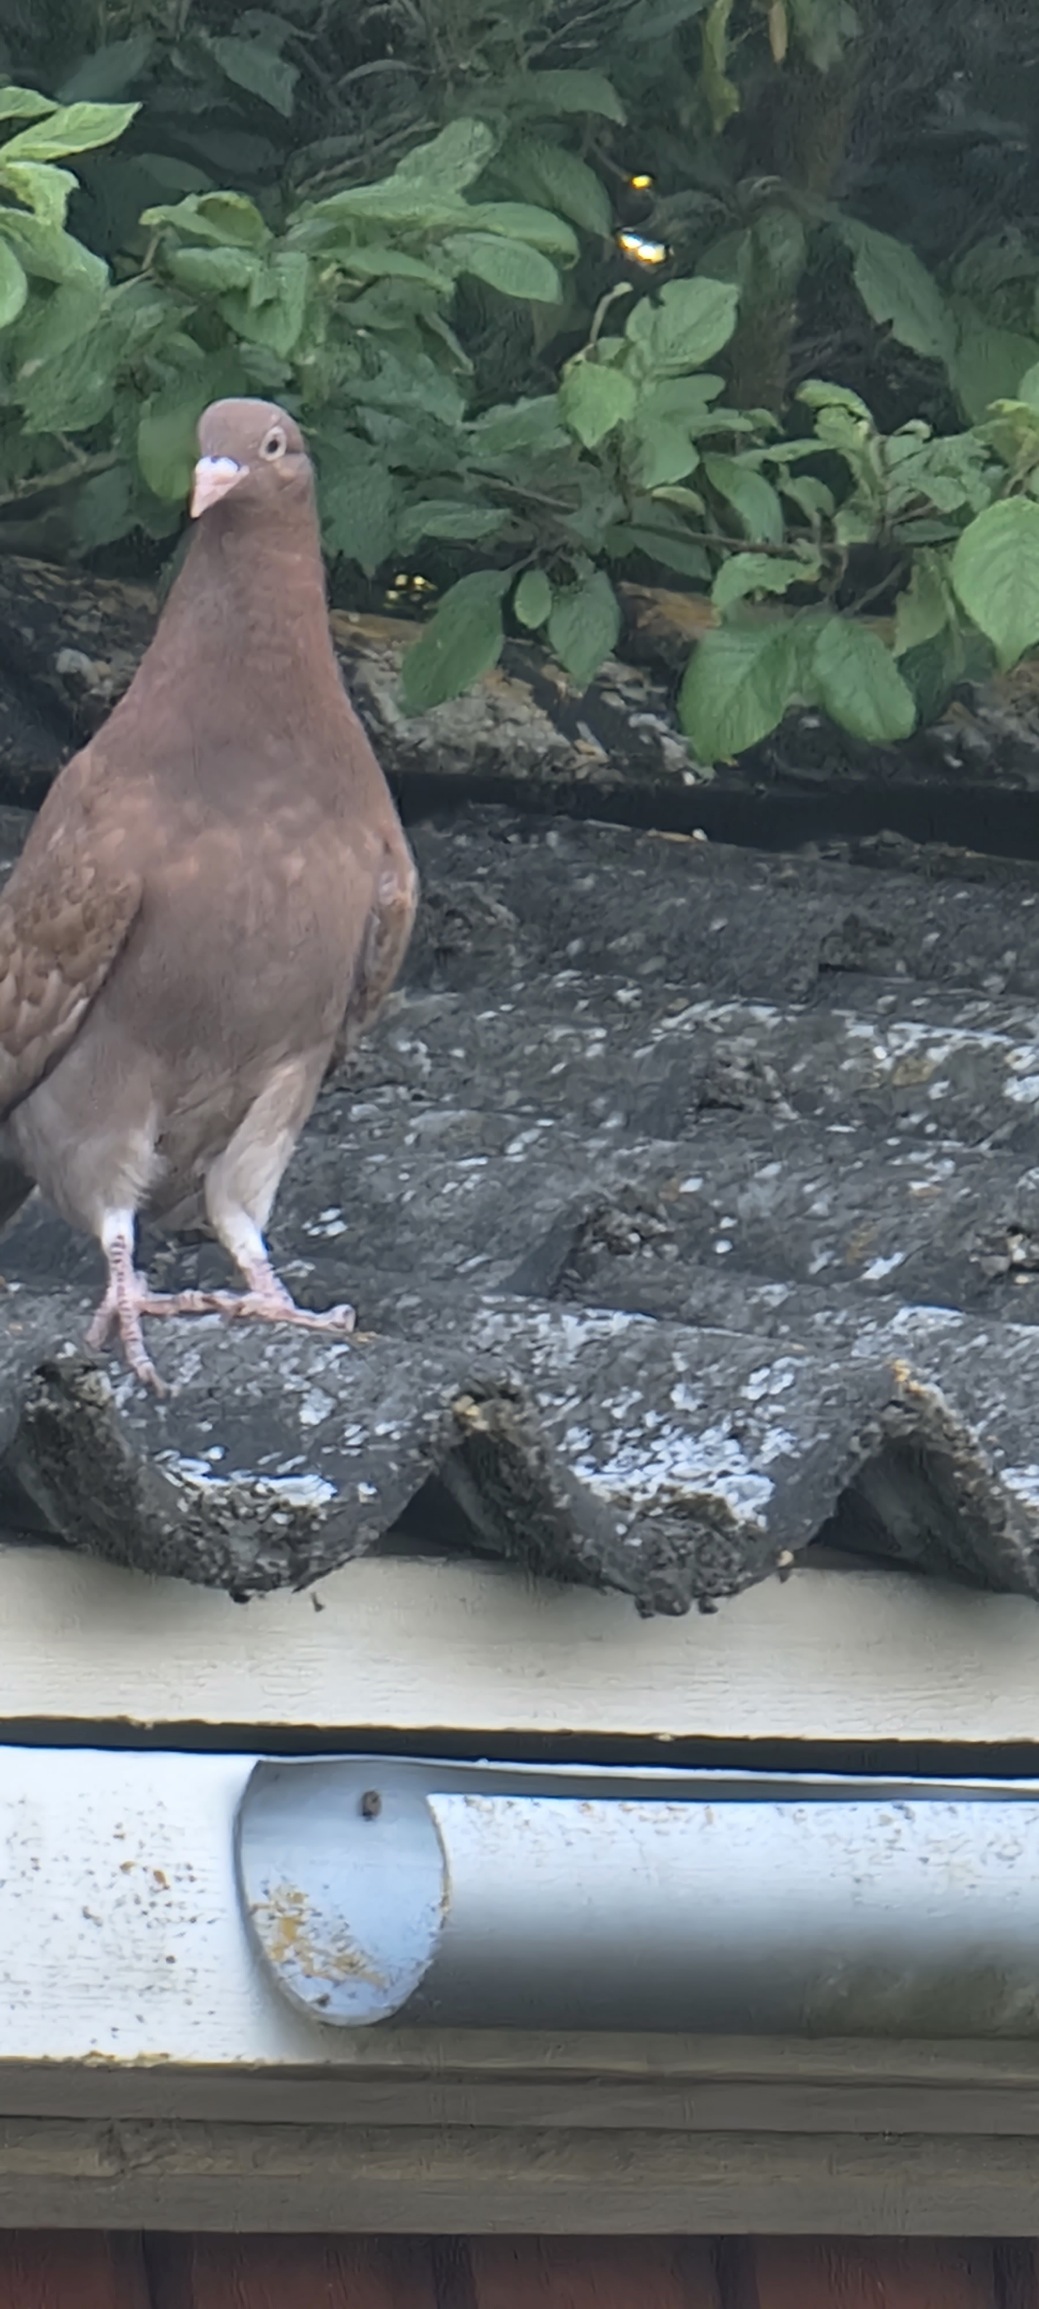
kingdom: Animalia
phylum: Chordata
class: Aves
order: Columbiformes
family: Columbidae
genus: Columba
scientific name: Columba livia
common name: Tamdue
